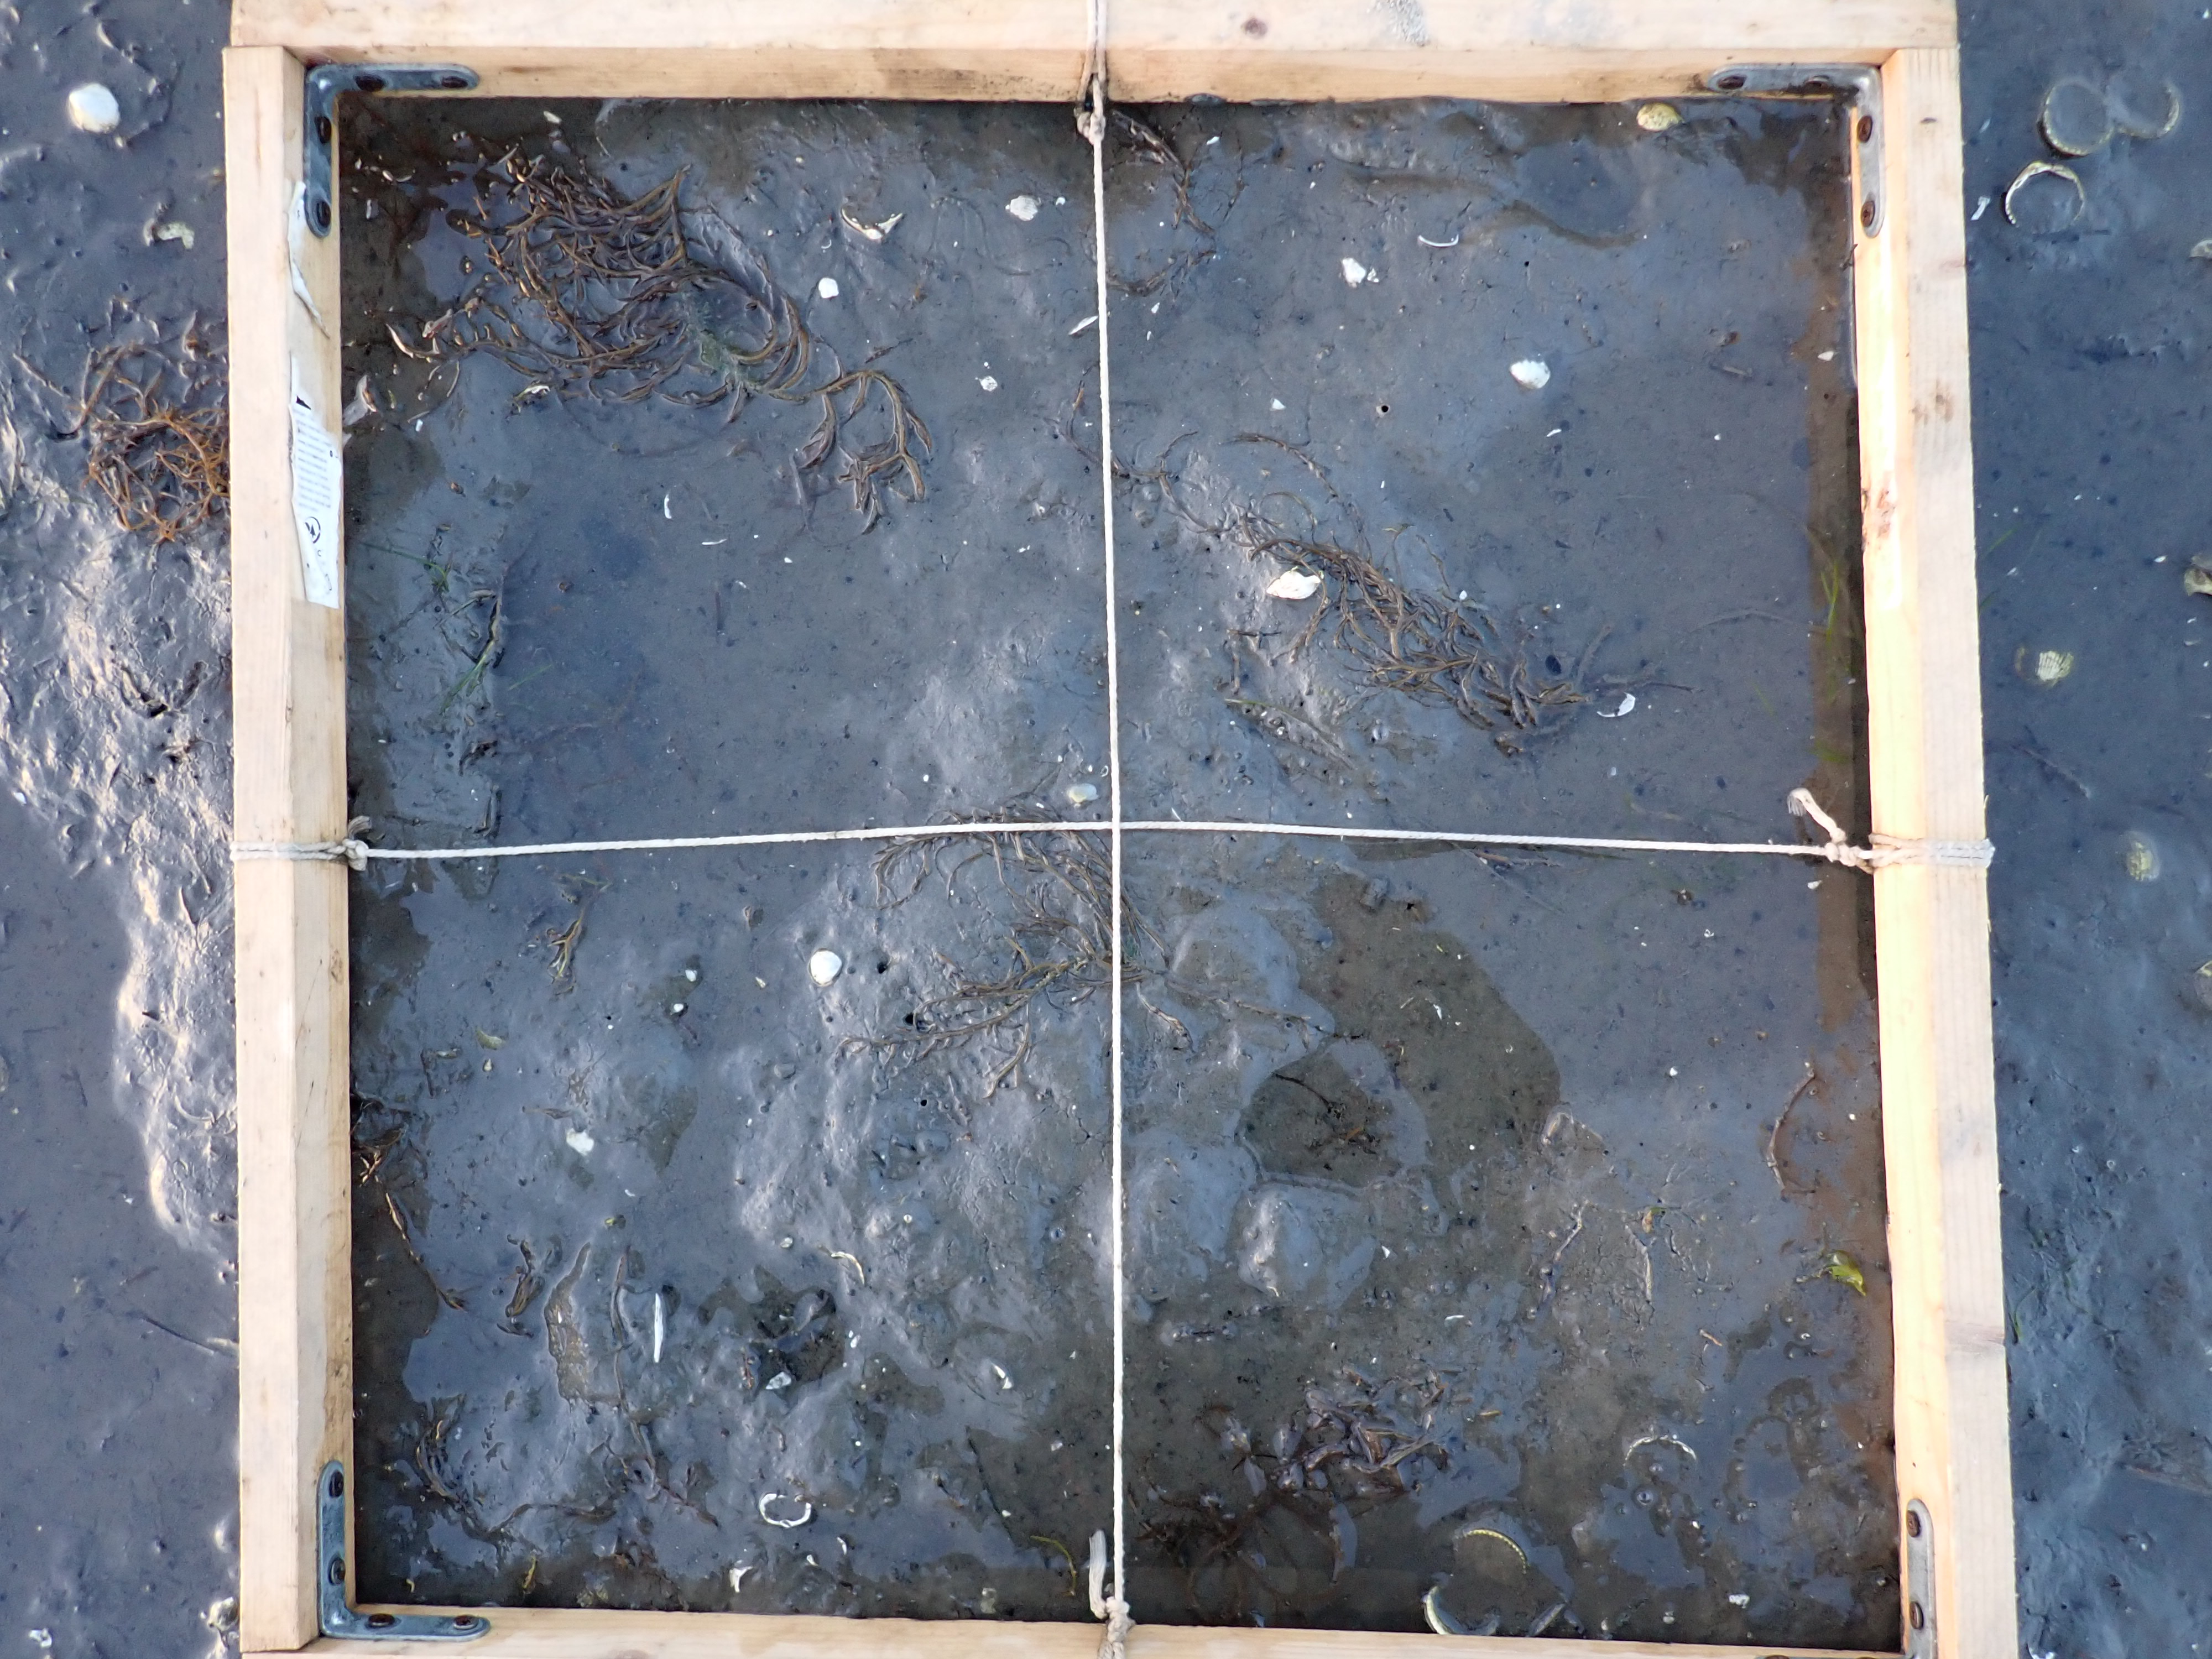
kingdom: Plantae
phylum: Rhodophyta
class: Florideophyceae
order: Gracilariales
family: Gracilariaceae
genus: Gracilaria
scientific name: Gracilaria vermiculophylla
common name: Algae
